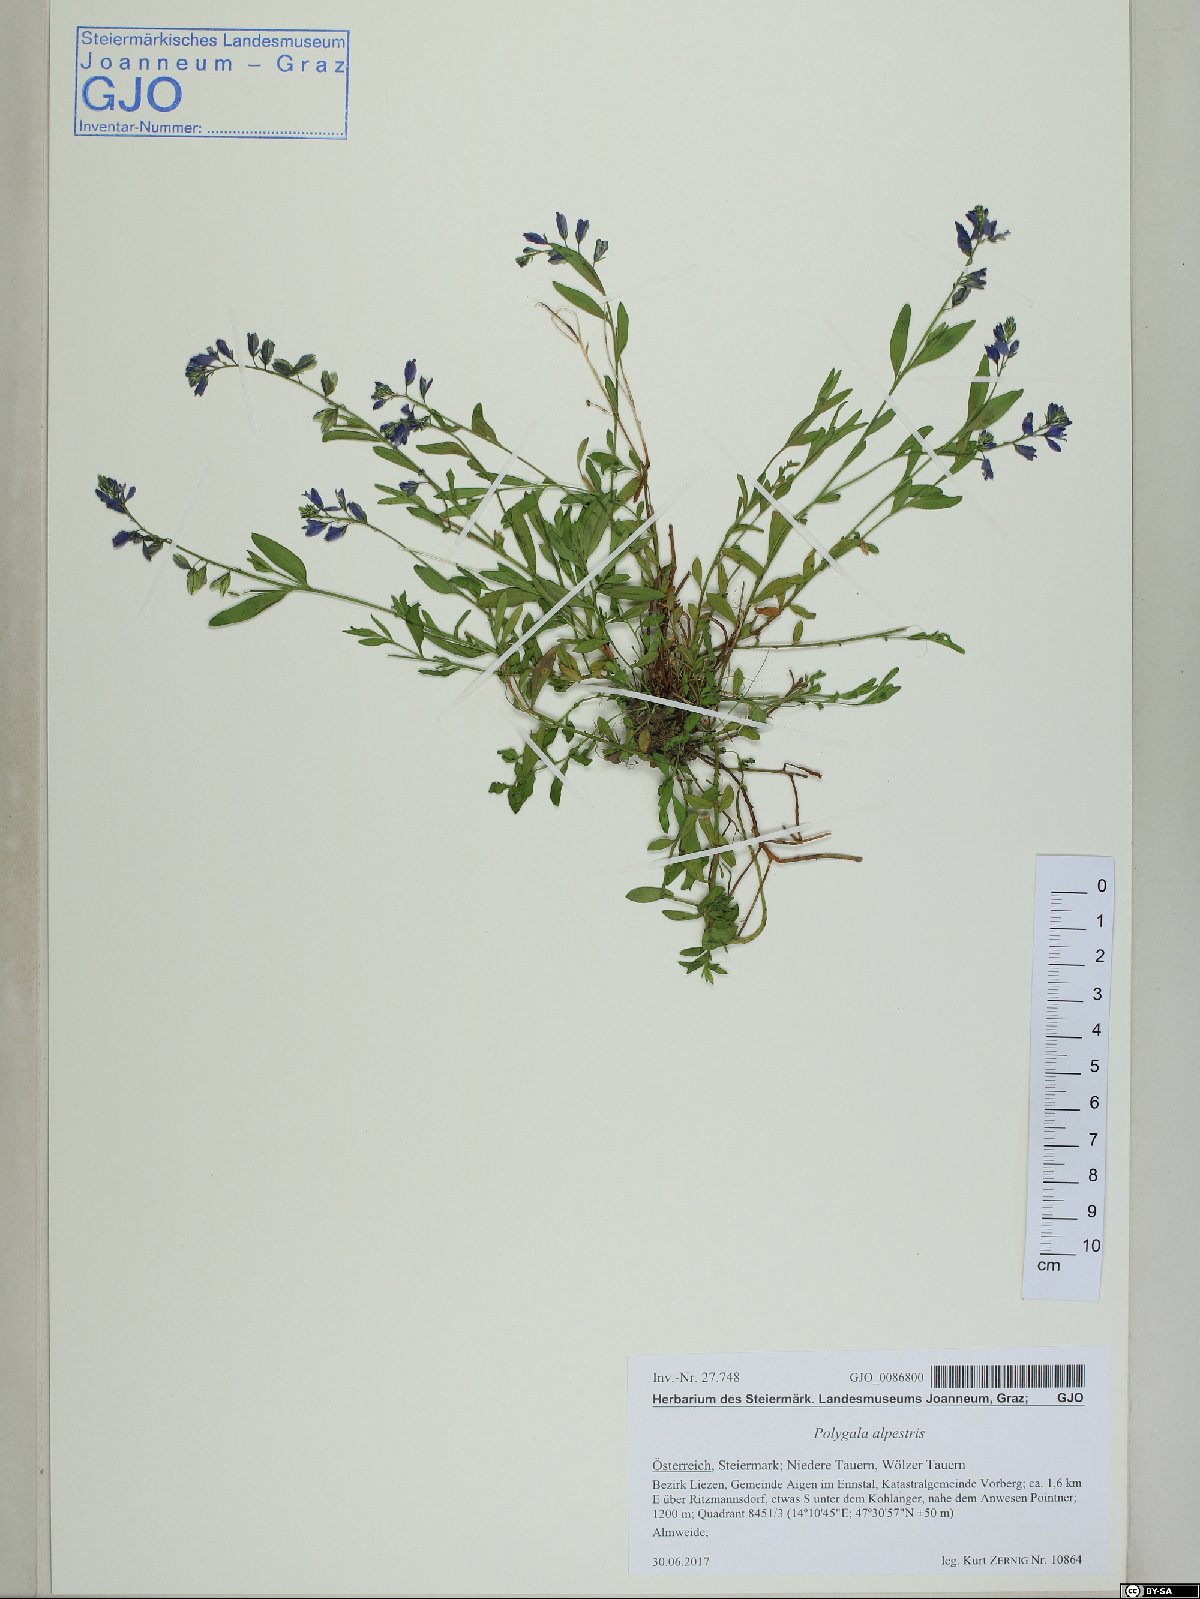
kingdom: Plantae
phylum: Tracheophyta
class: Magnoliopsida
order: Fabales
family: Polygalaceae
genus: Polygala
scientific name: Polygala alpestris
